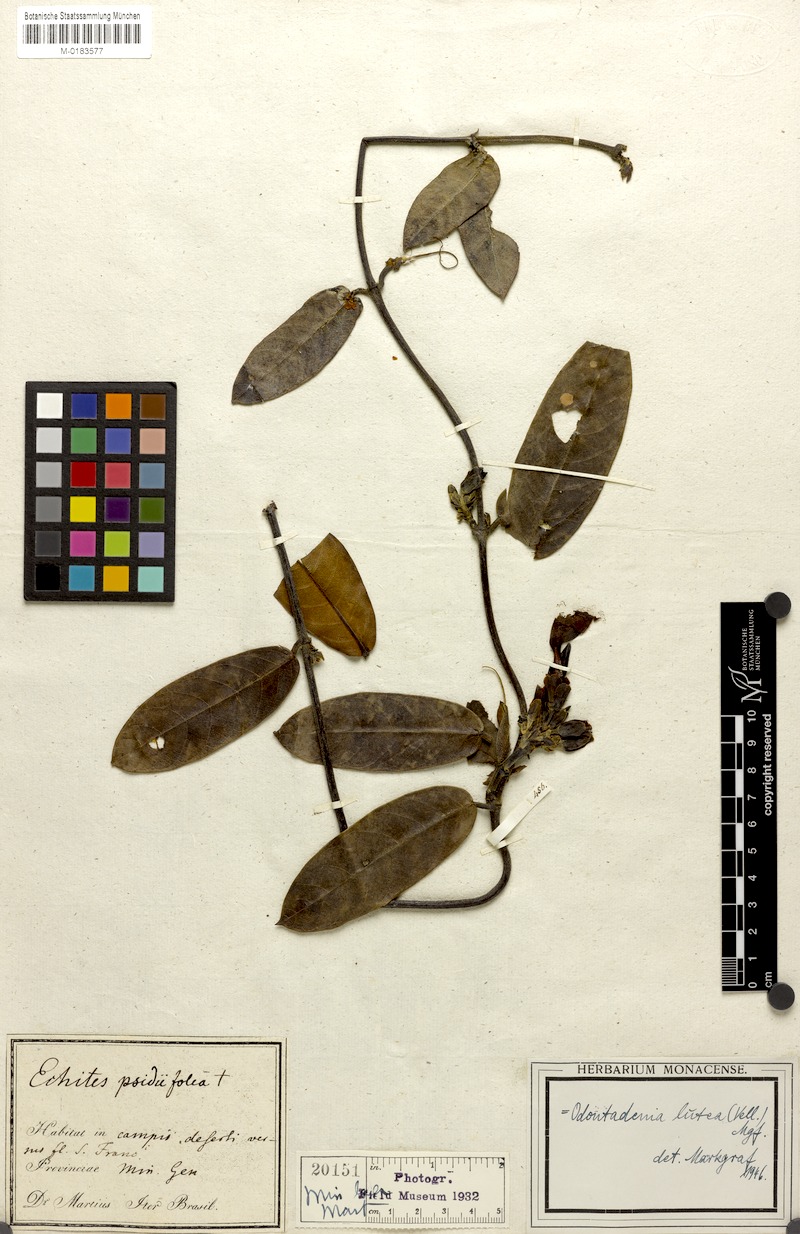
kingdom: Plantae
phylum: Tracheophyta
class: Magnoliopsida
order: Gentianales
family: Apocynaceae
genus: Odontadenia
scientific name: Odontadenia lutea
